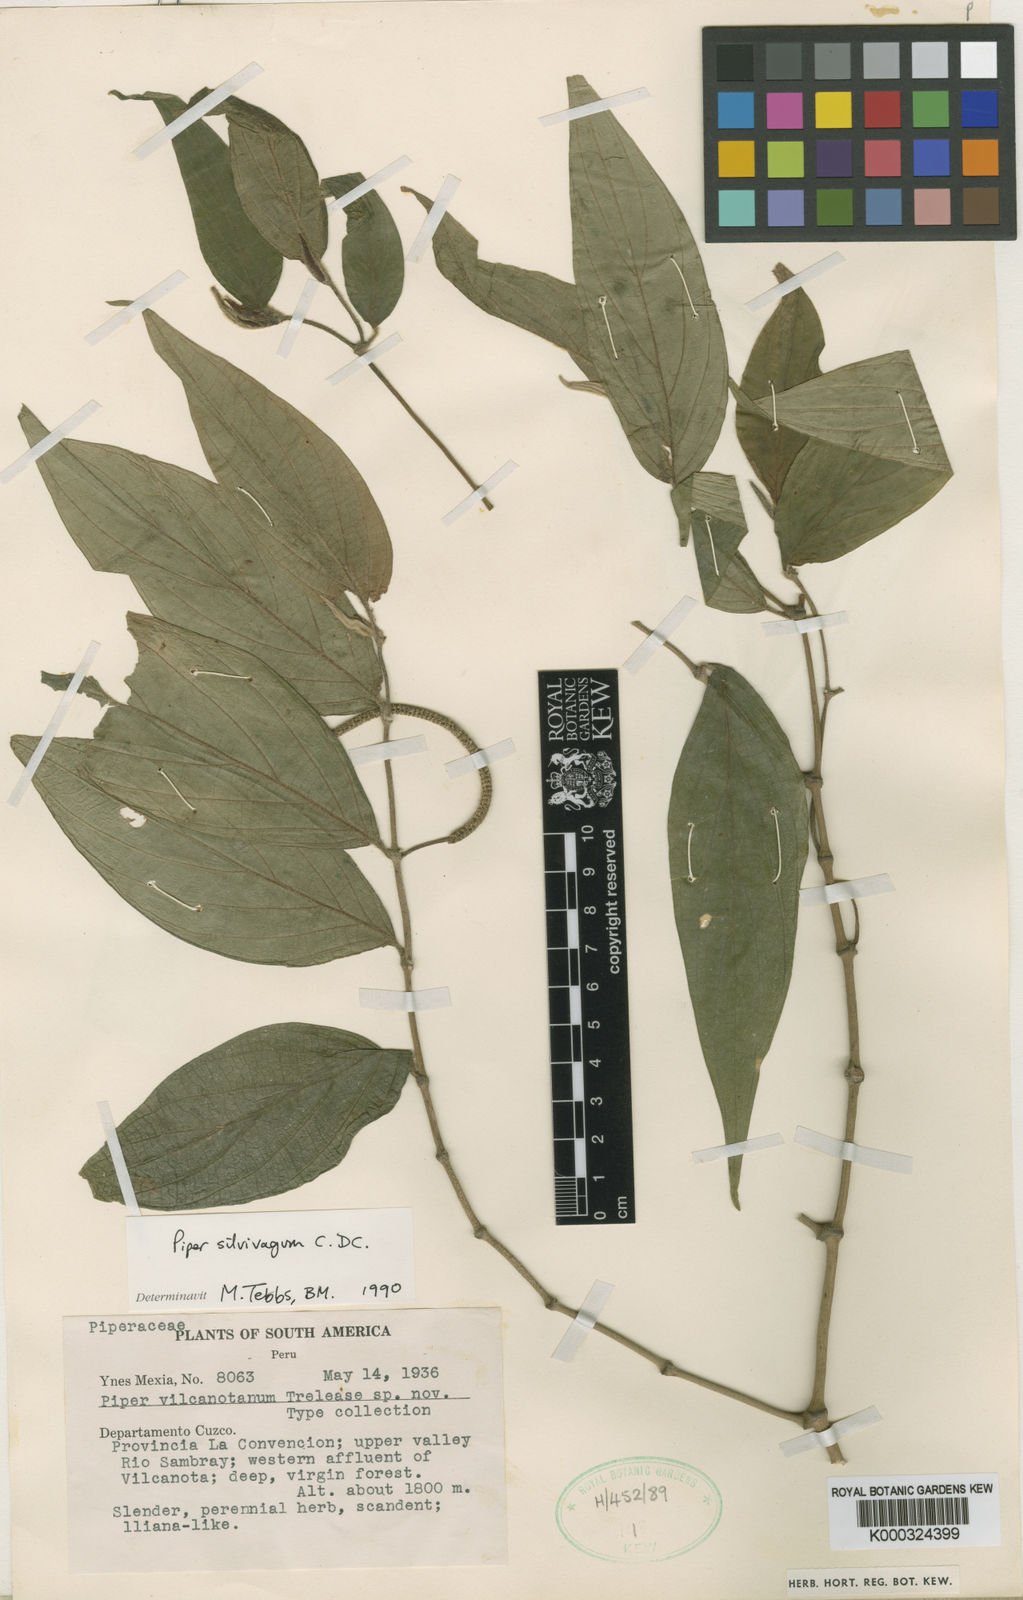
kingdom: Plantae
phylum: Tracheophyta
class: Magnoliopsida
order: Piperales
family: Piperaceae
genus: Piper
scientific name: Piper silvivagum
